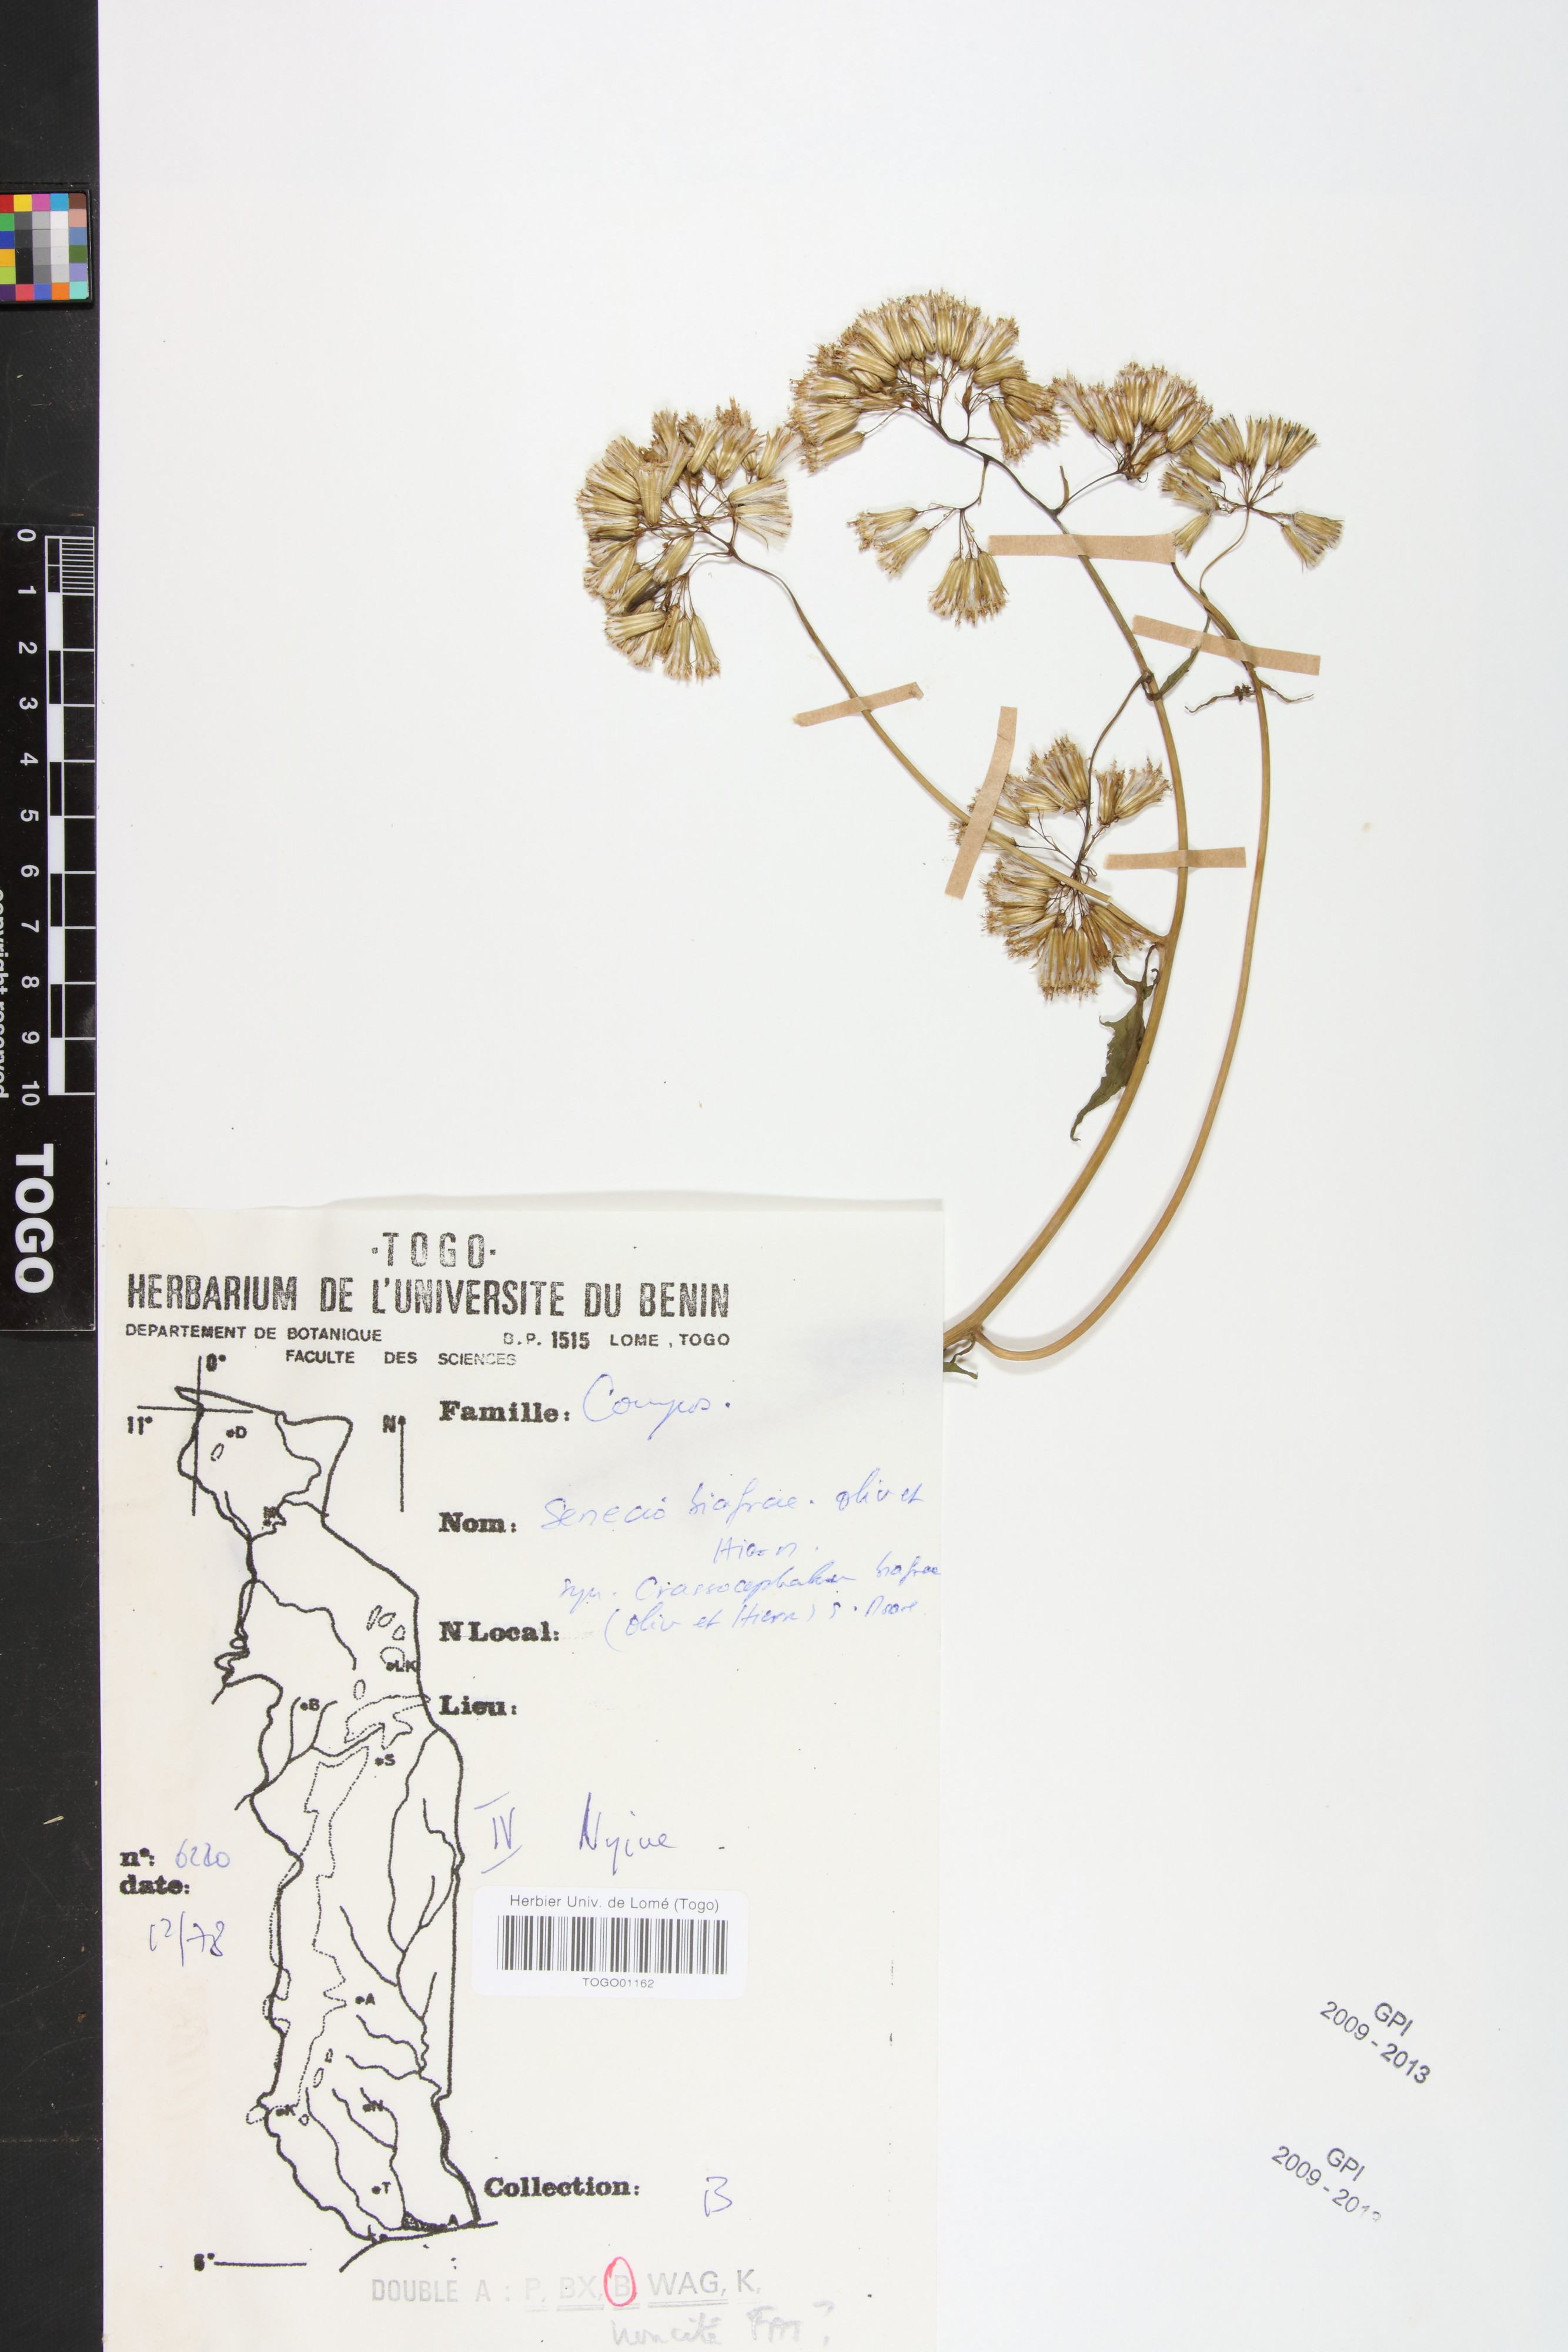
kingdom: Plantae
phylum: Tracheophyta
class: Magnoliopsida
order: Asterales
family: Asteraceae
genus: Solanecio
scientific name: Solanecio biafrae
